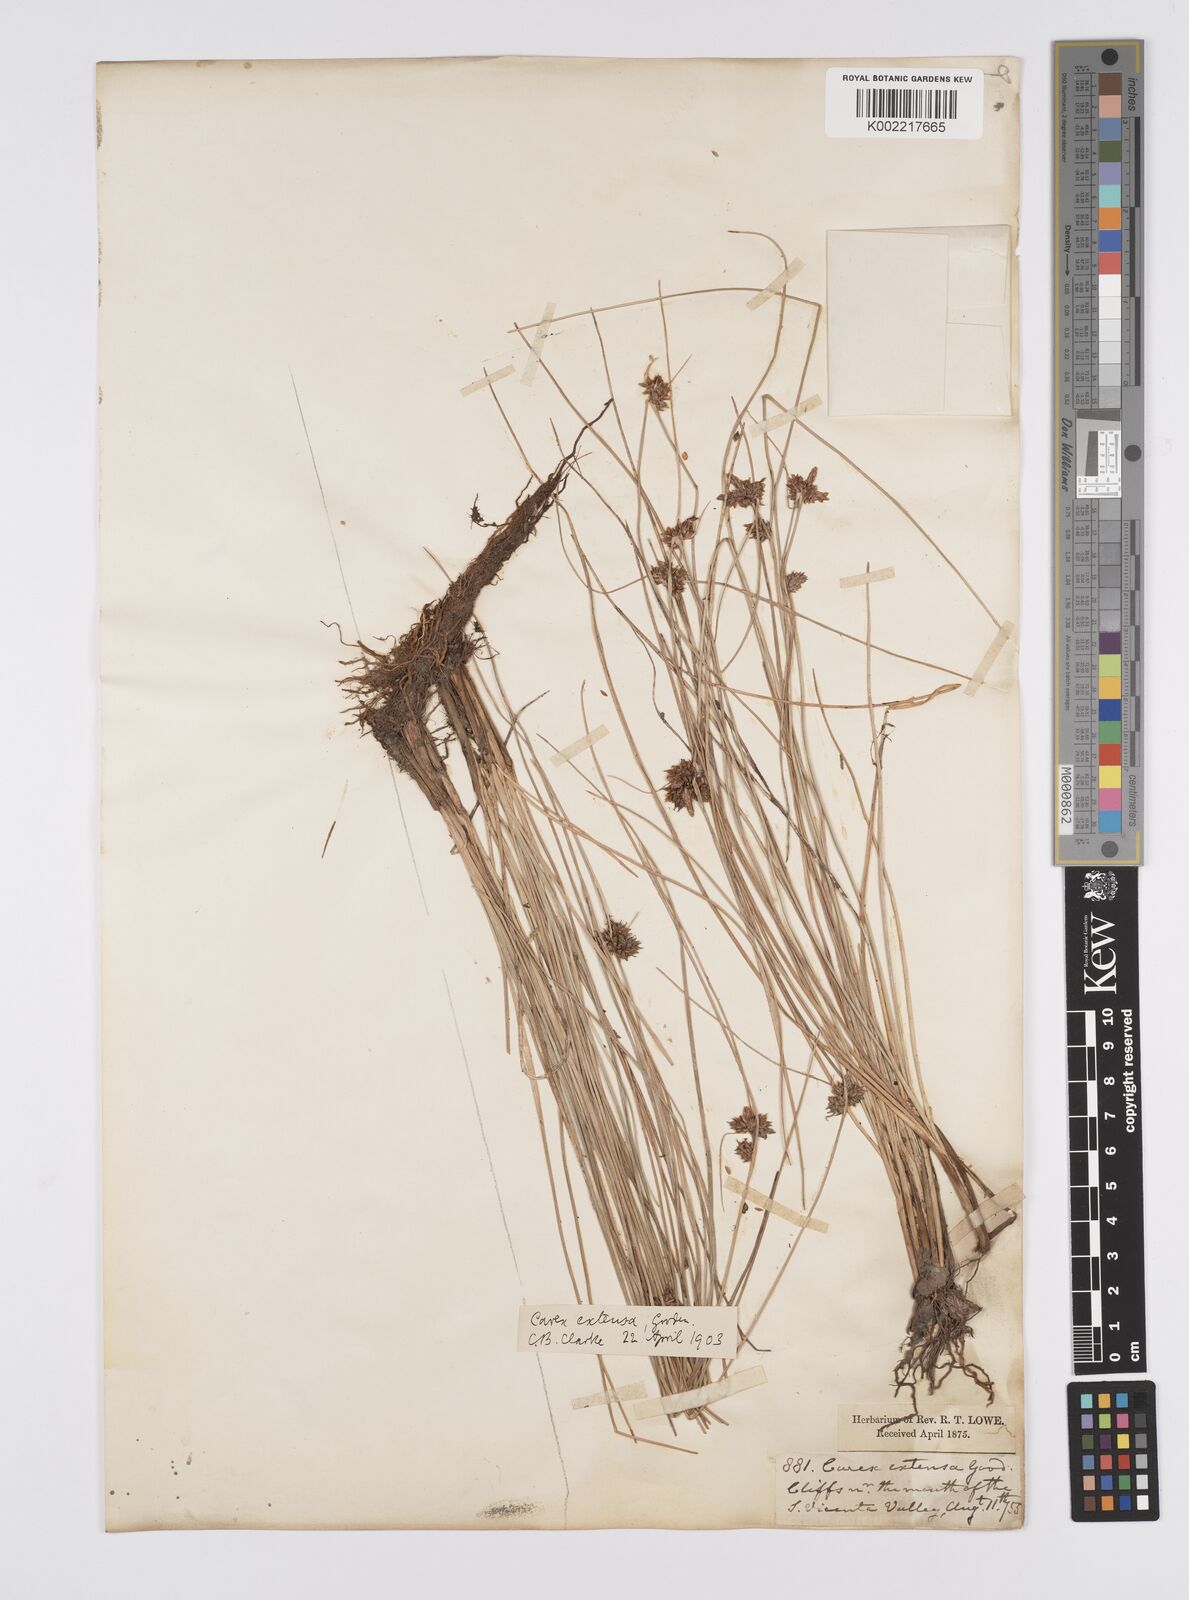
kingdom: Plantae
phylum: Tracheophyta
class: Liliopsida
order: Poales
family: Cyperaceae
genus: Carex
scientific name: Carex diluta
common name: Sedge
